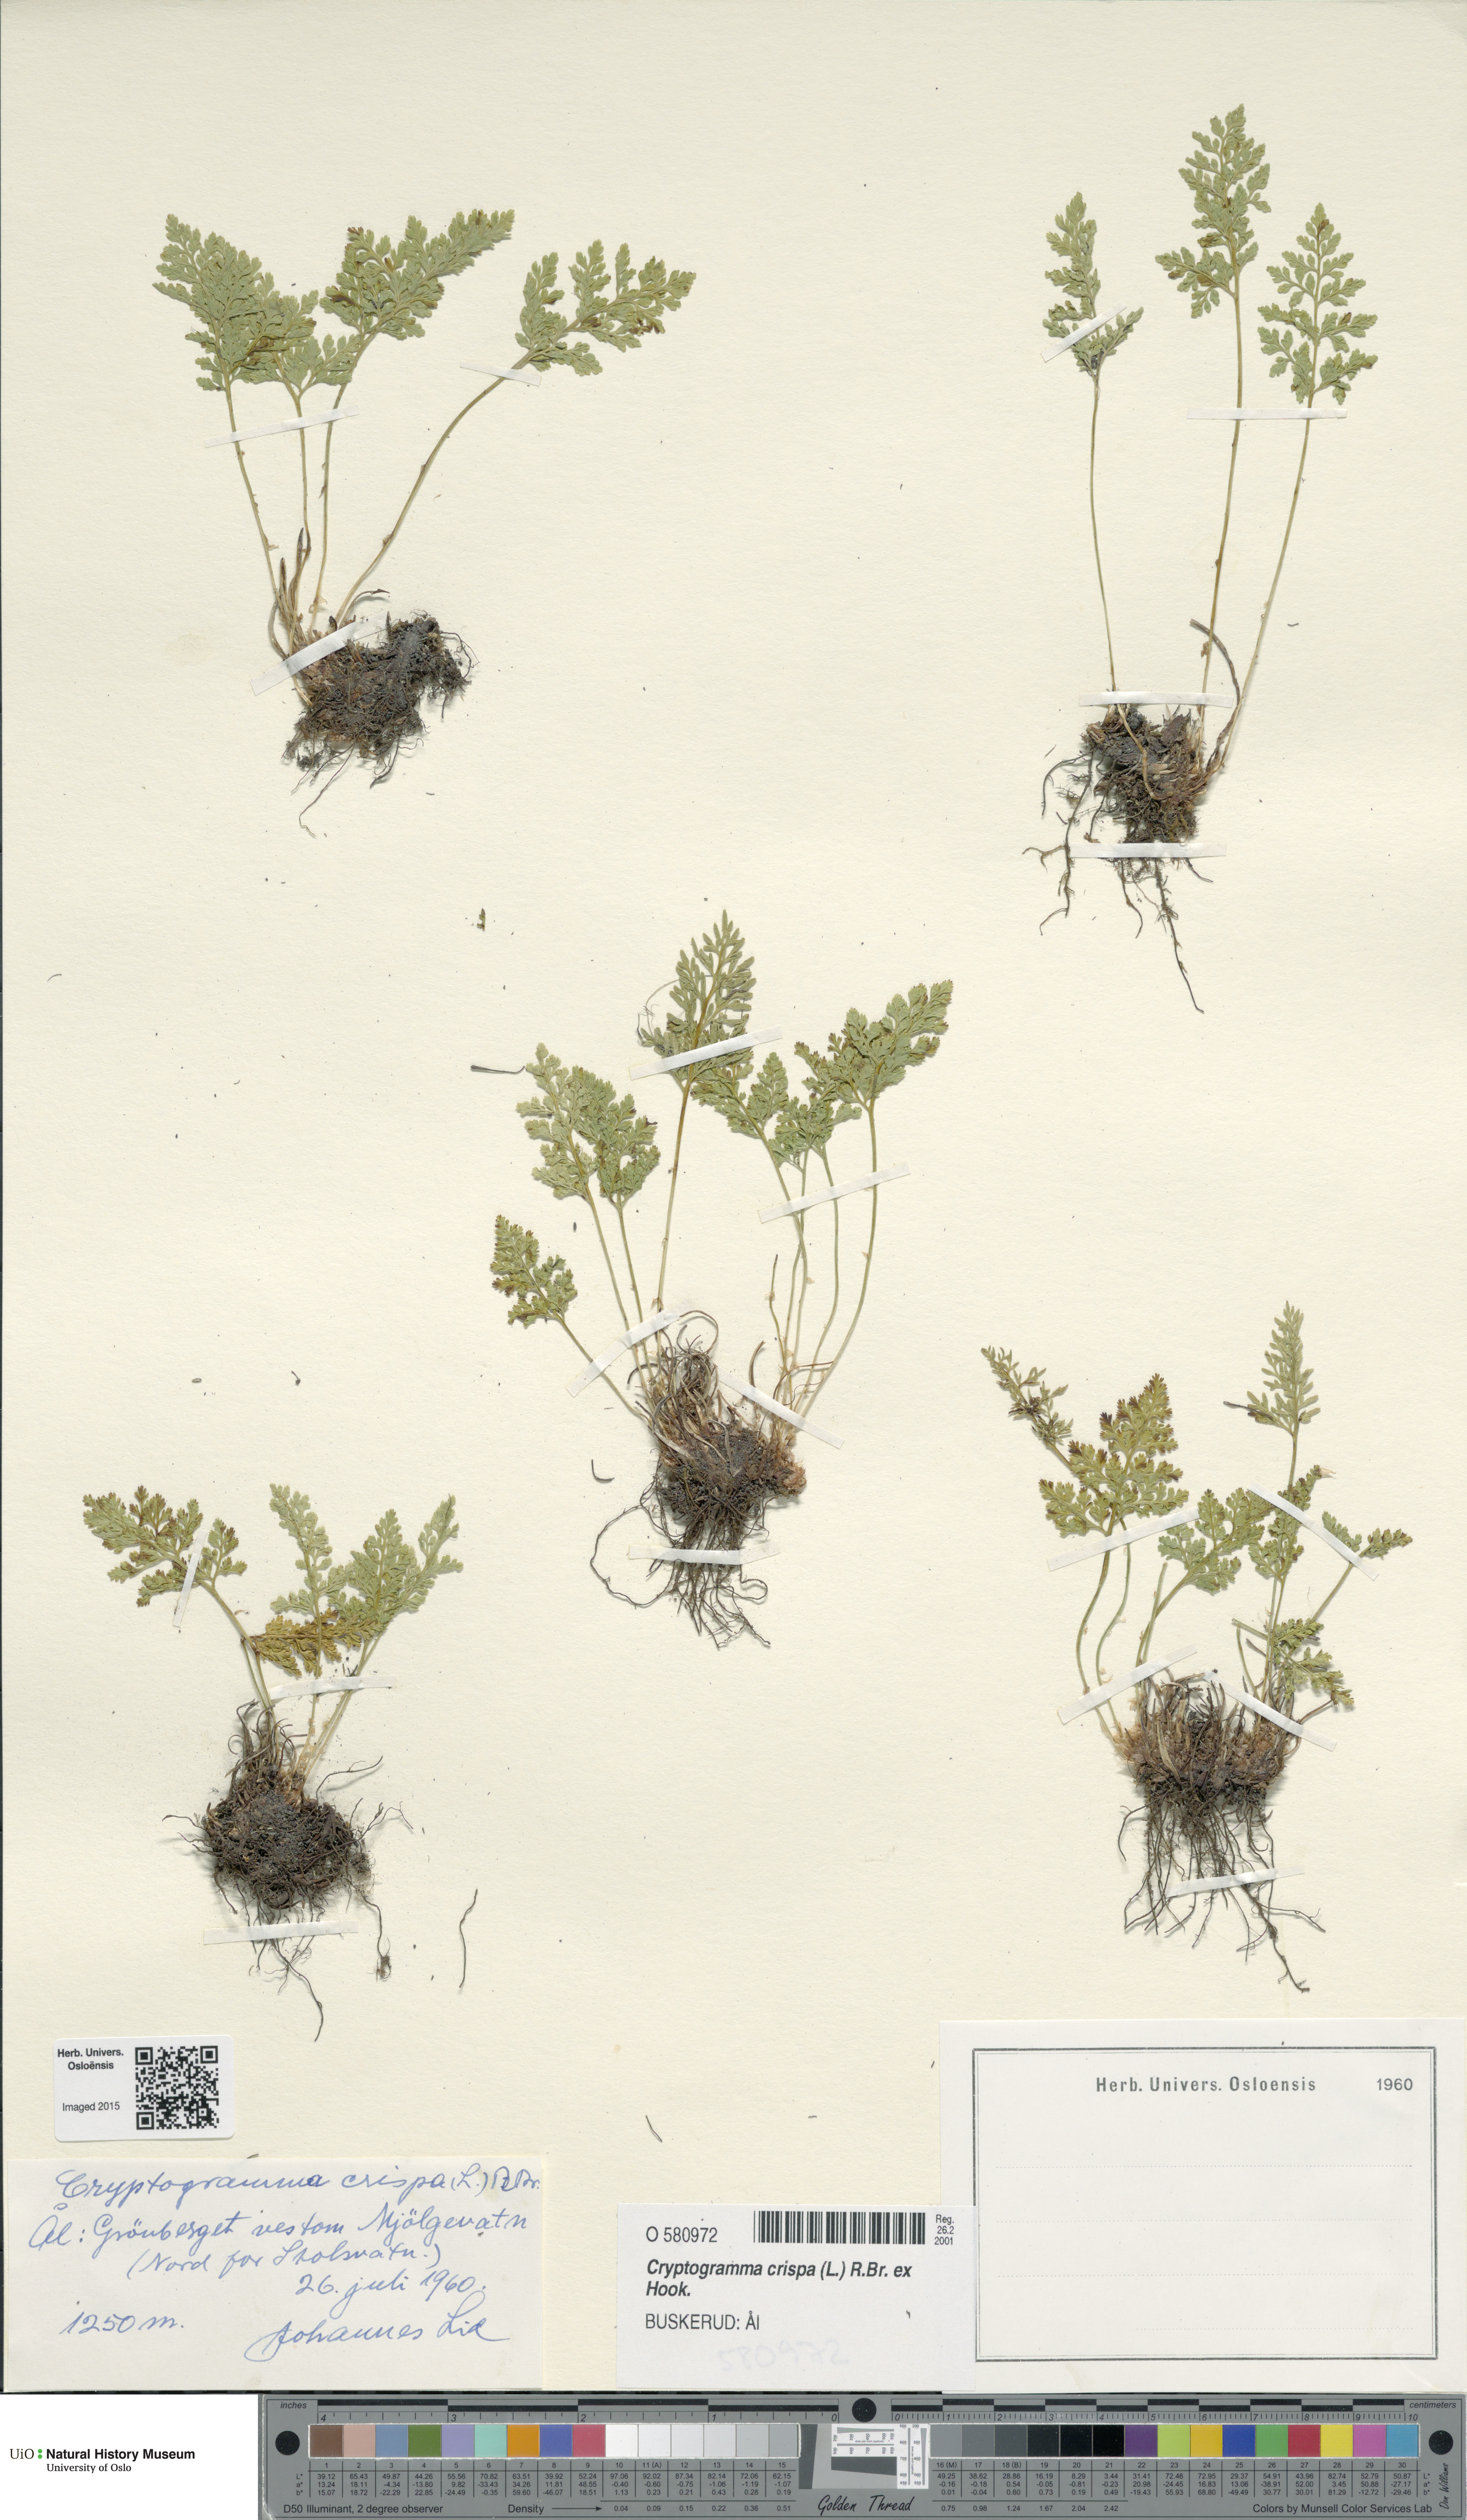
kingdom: Plantae
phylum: Tracheophyta
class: Polypodiopsida
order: Polypodiales
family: Pteridaceae
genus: Cryptogramma
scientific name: Cryptogramma crispa
